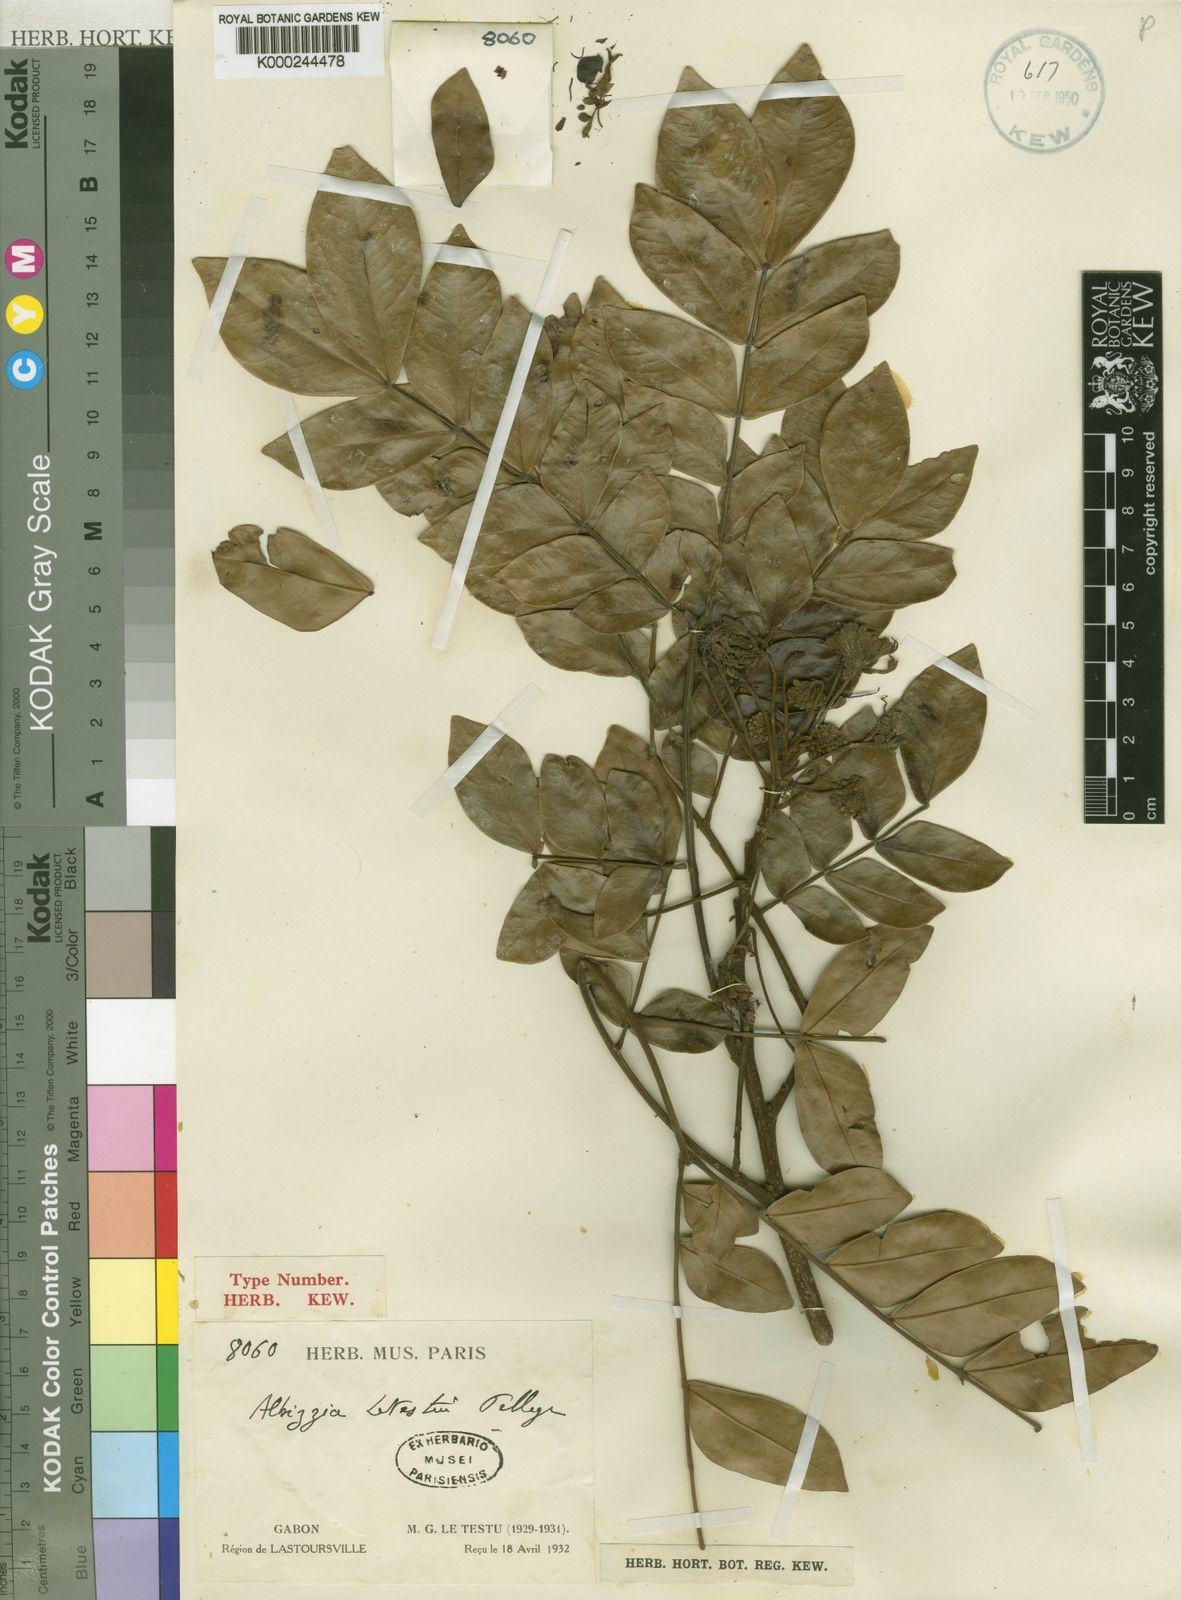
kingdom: Plantae
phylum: Tracheophyta
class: Magnoliopsida
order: Fabales
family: Fabaceae
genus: Albizia
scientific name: Albizia zygia
